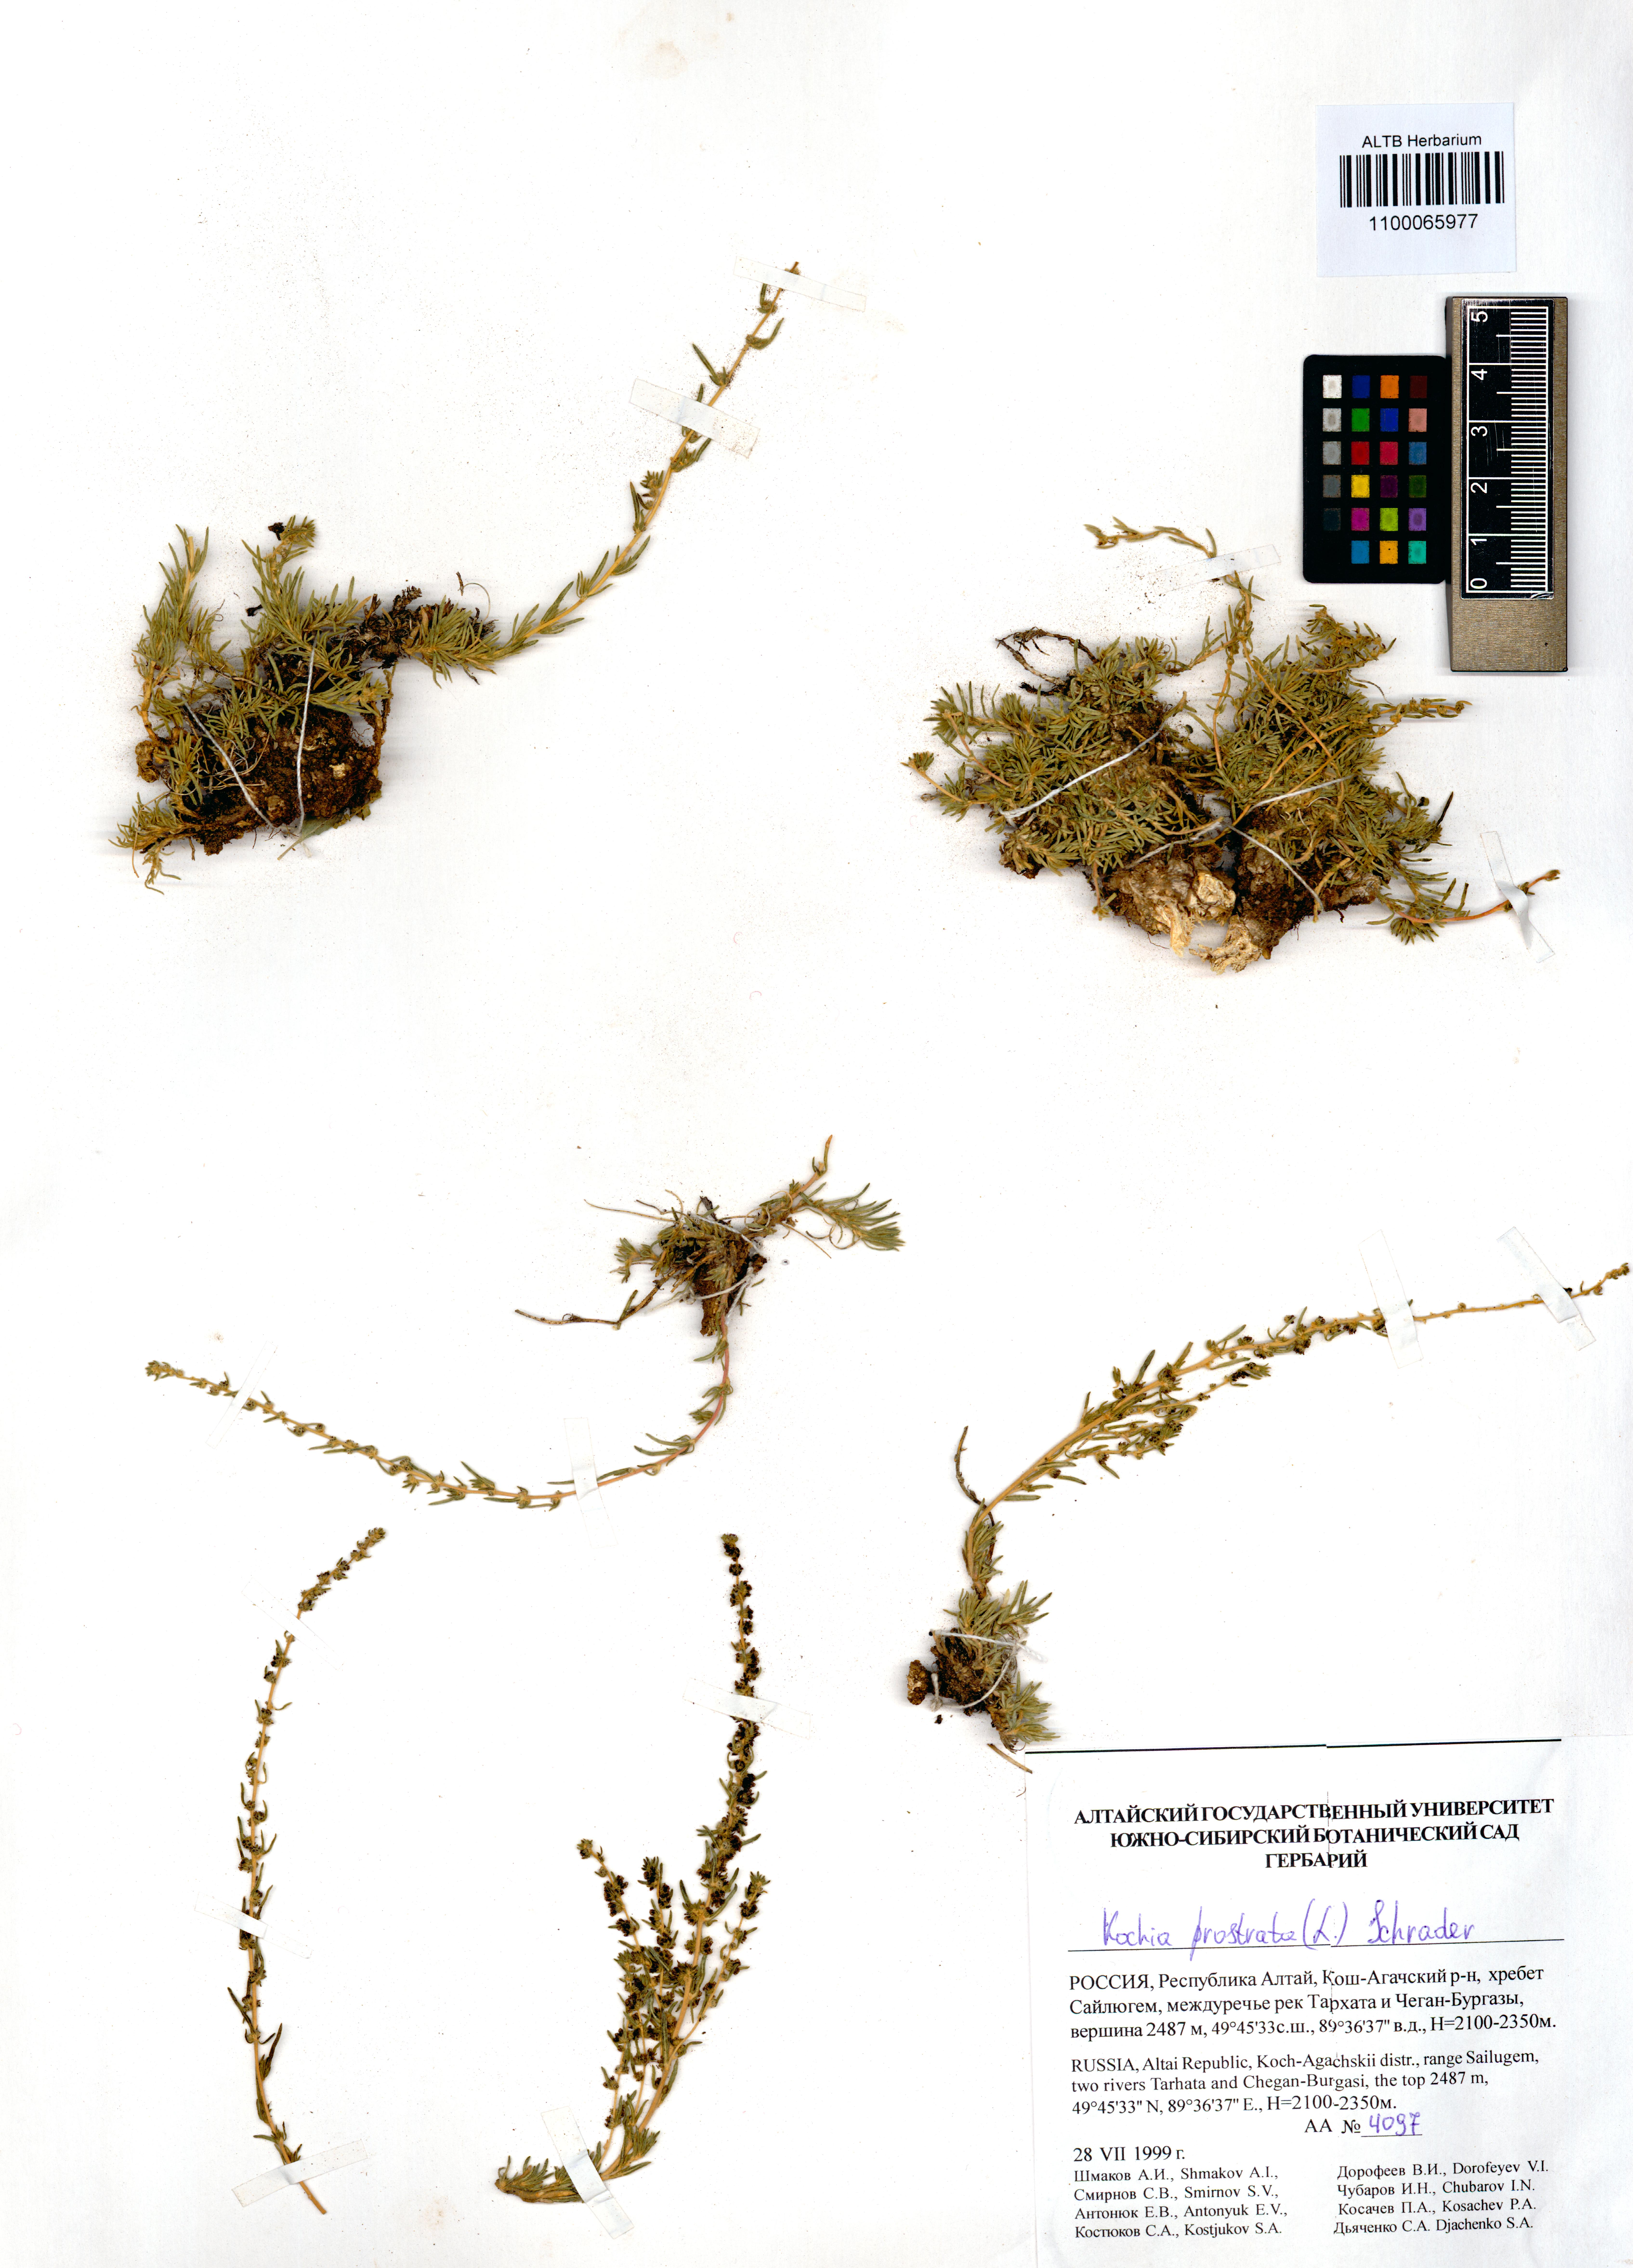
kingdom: Plantae
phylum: Tracheophyta
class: Magnoliopsida
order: Caryophyllales
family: Amaranthaceae
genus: Bassia
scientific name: Bassia prostrata
